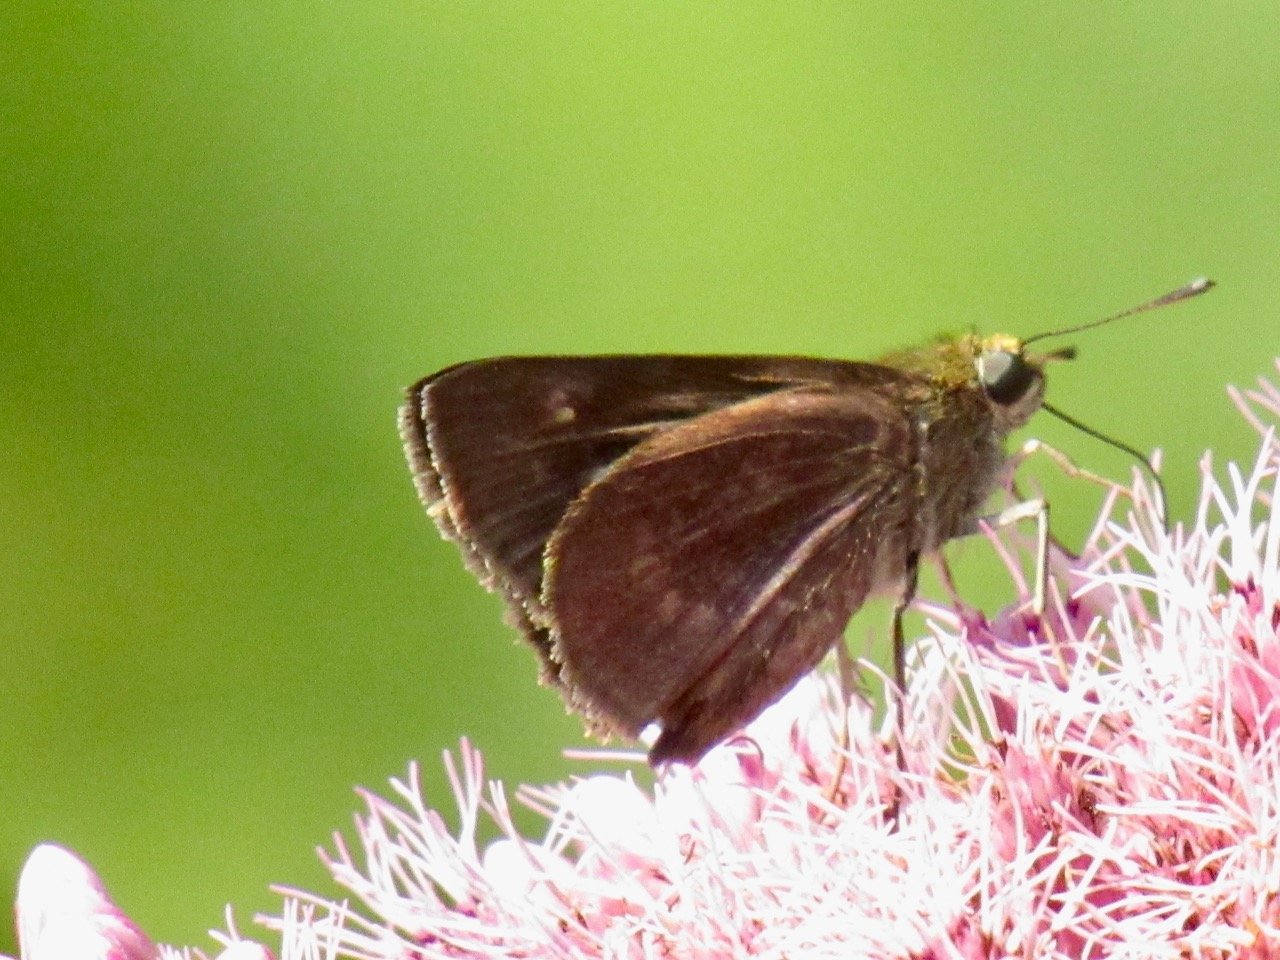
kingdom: Animalia
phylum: Arthropoda
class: Insecta
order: Lepidoptera
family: Hesperiidae
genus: Polites
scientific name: Polites egeremet
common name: Northern Broken-Dash
